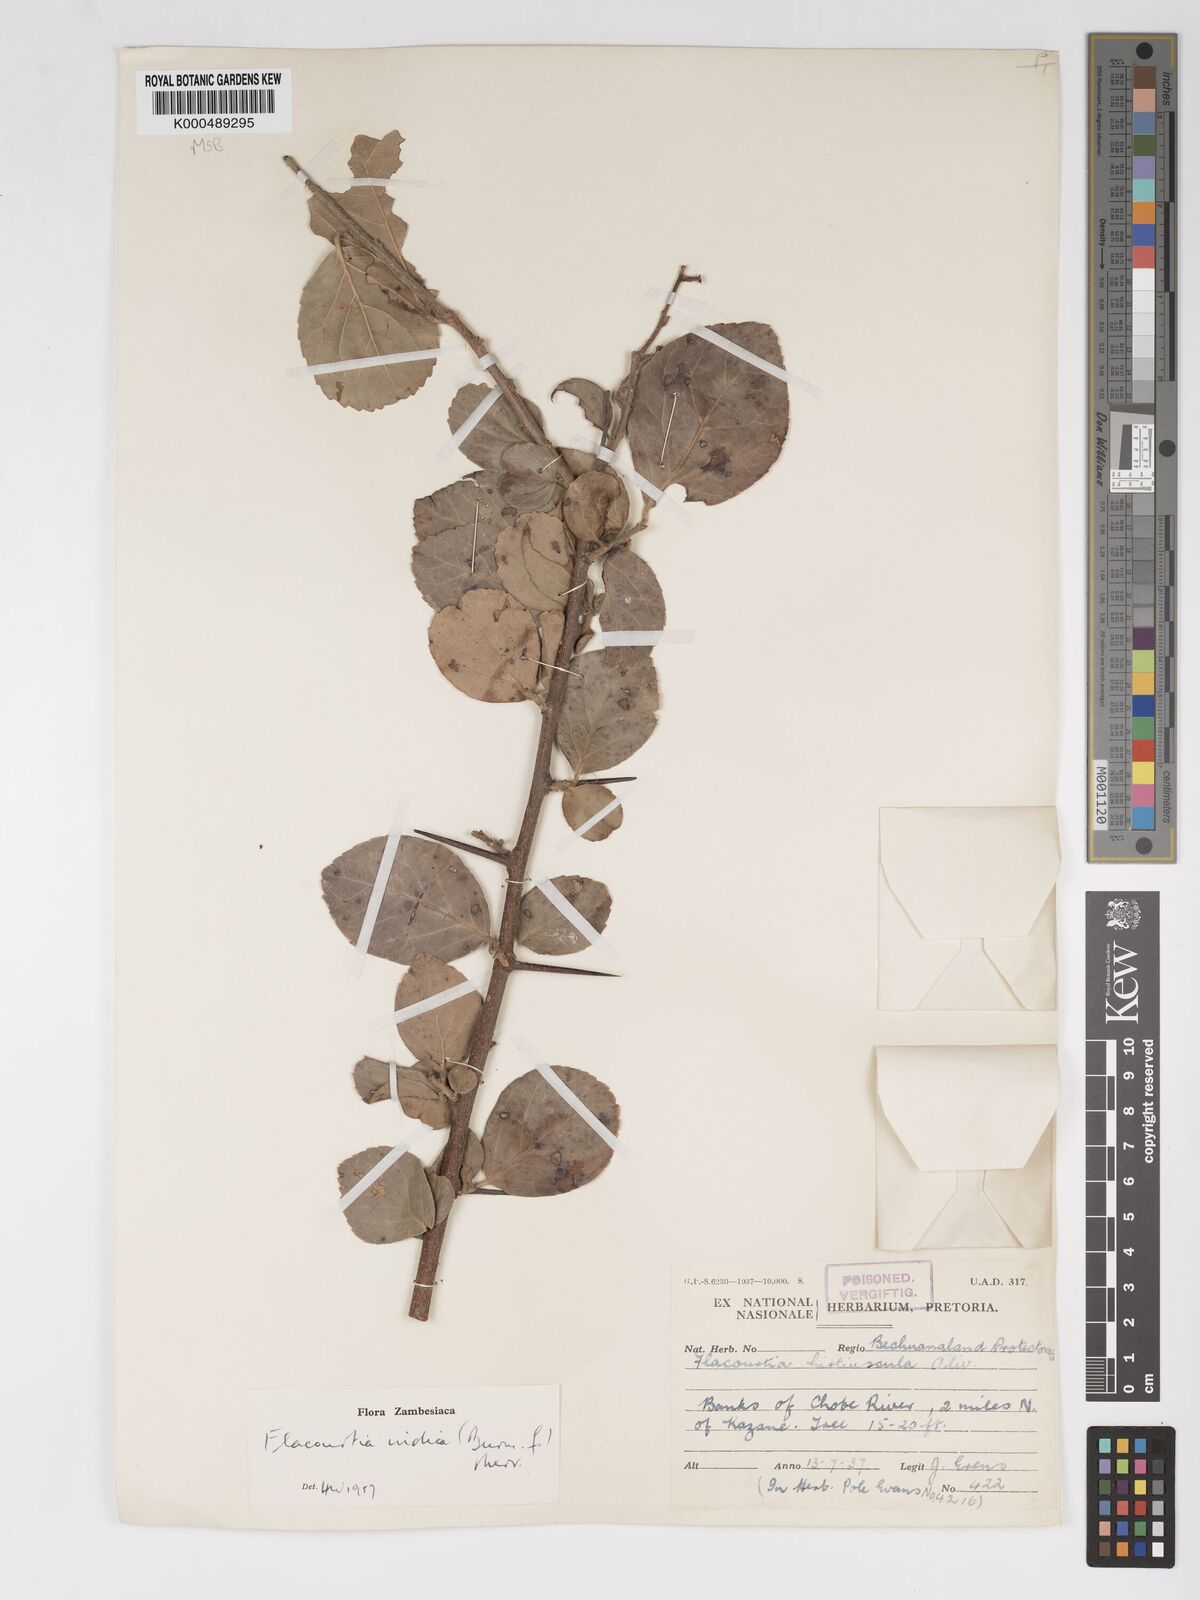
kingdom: Plantae
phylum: Tracheophyta
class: Magnoliopsida
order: Malpighiales
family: Salicaceae
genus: Flacourtia
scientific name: Flacourtia indica
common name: Governor's plum
